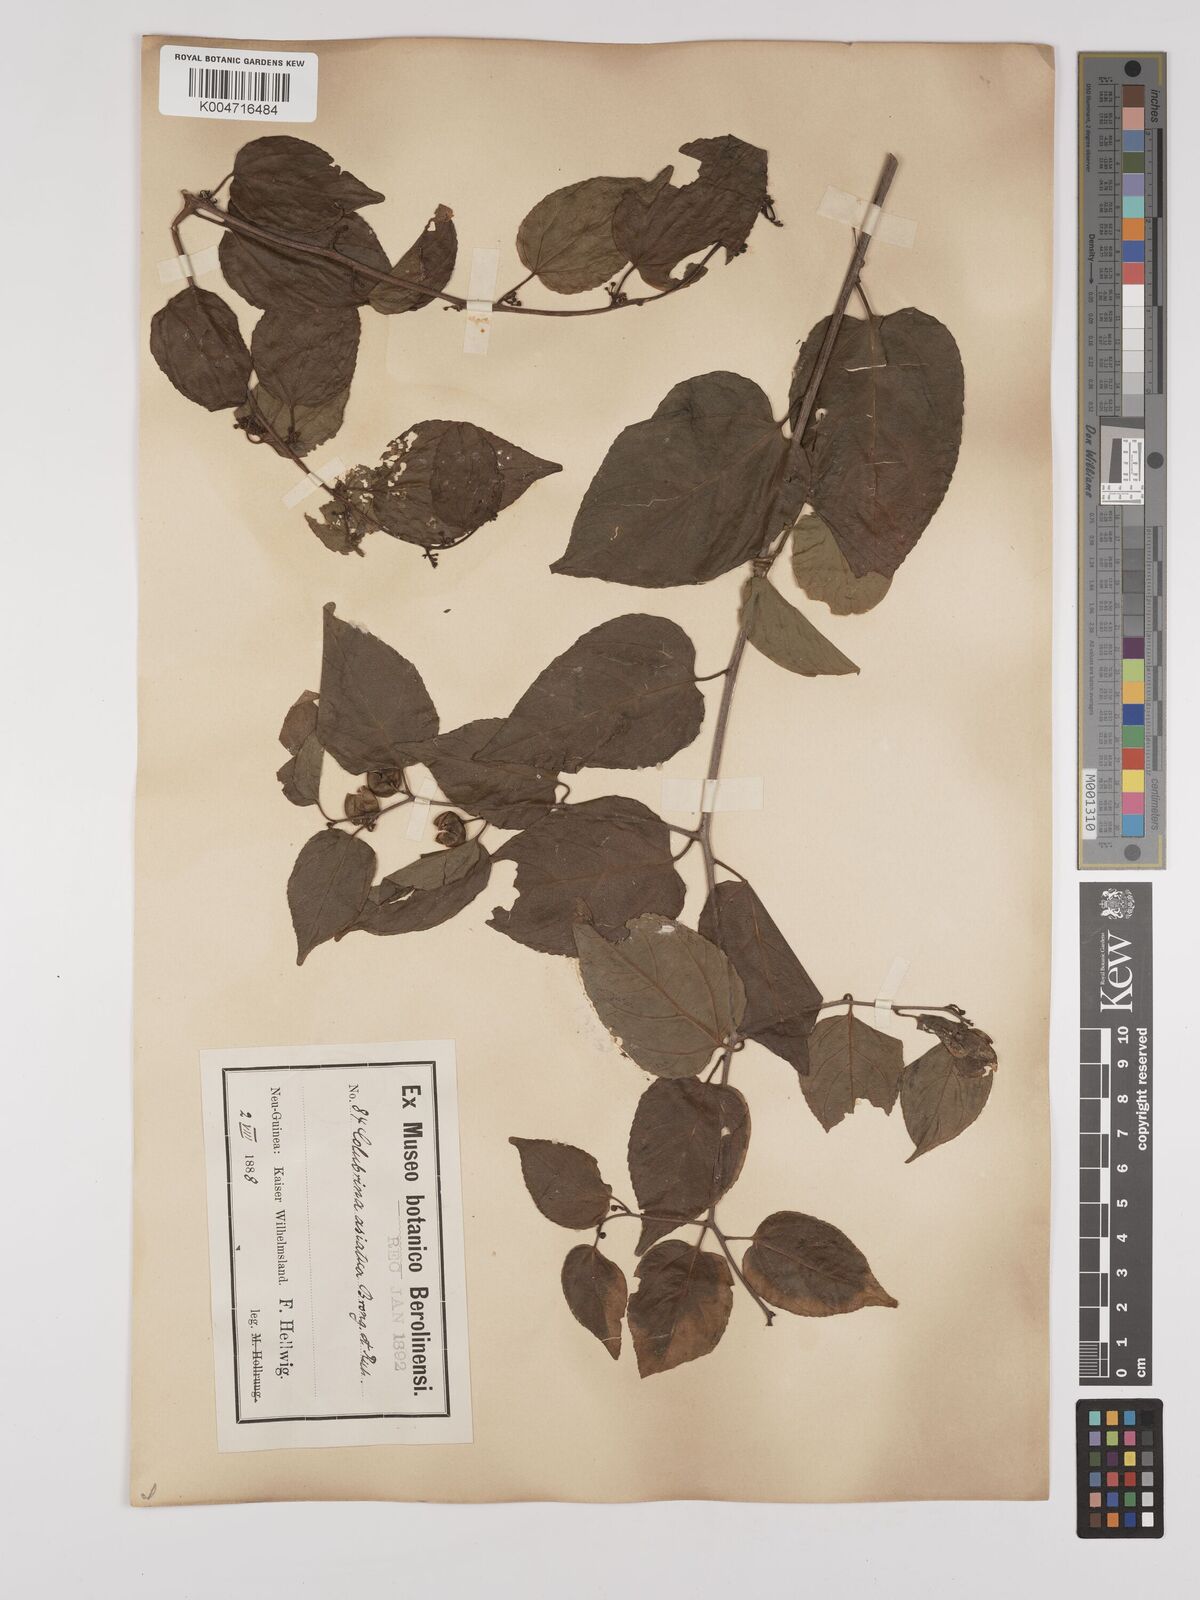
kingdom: Plantae
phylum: Tracheophyta
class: Magnoliopsida
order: Rosales
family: Rhamnaceae
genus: Colubrina
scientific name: Colubrina asiatica
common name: Asian nakedwood
